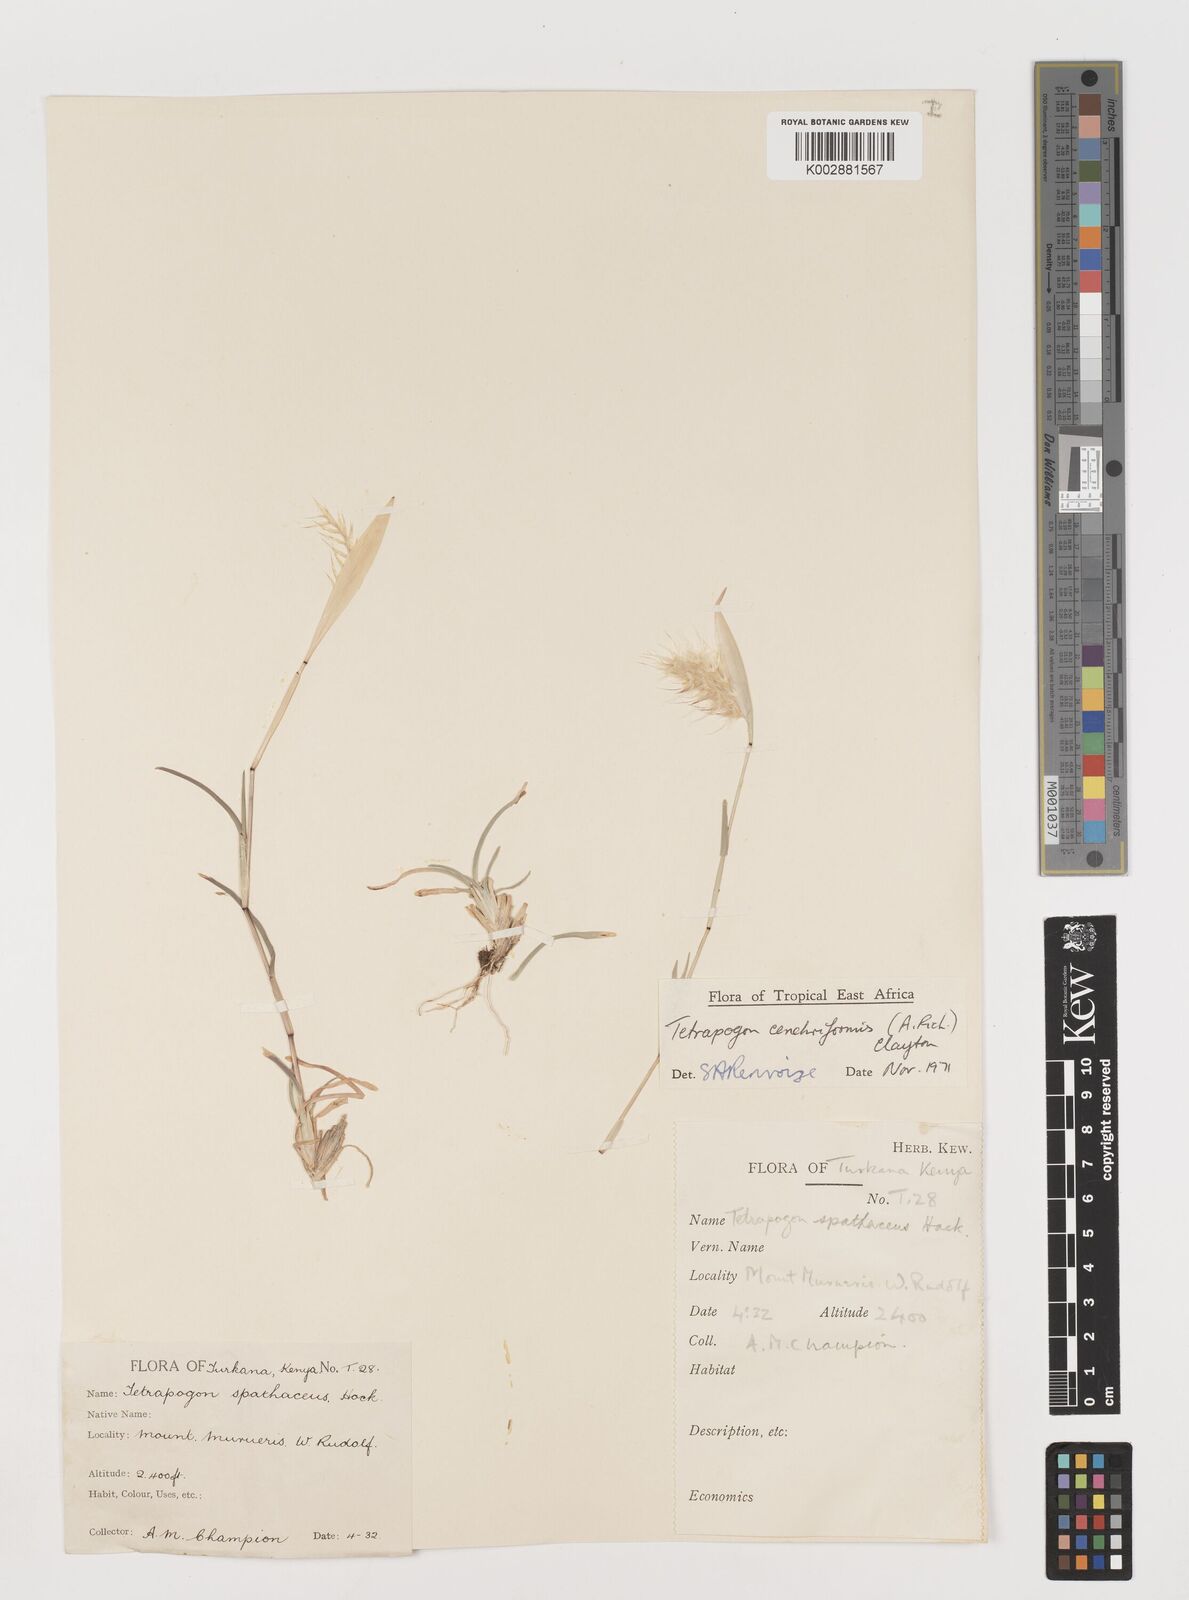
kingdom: Plantae
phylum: Tracheophyta
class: Liliopsida
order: Poales
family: Poaceae
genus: Tetrapogon
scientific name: Tetrapogon cenchriformis
